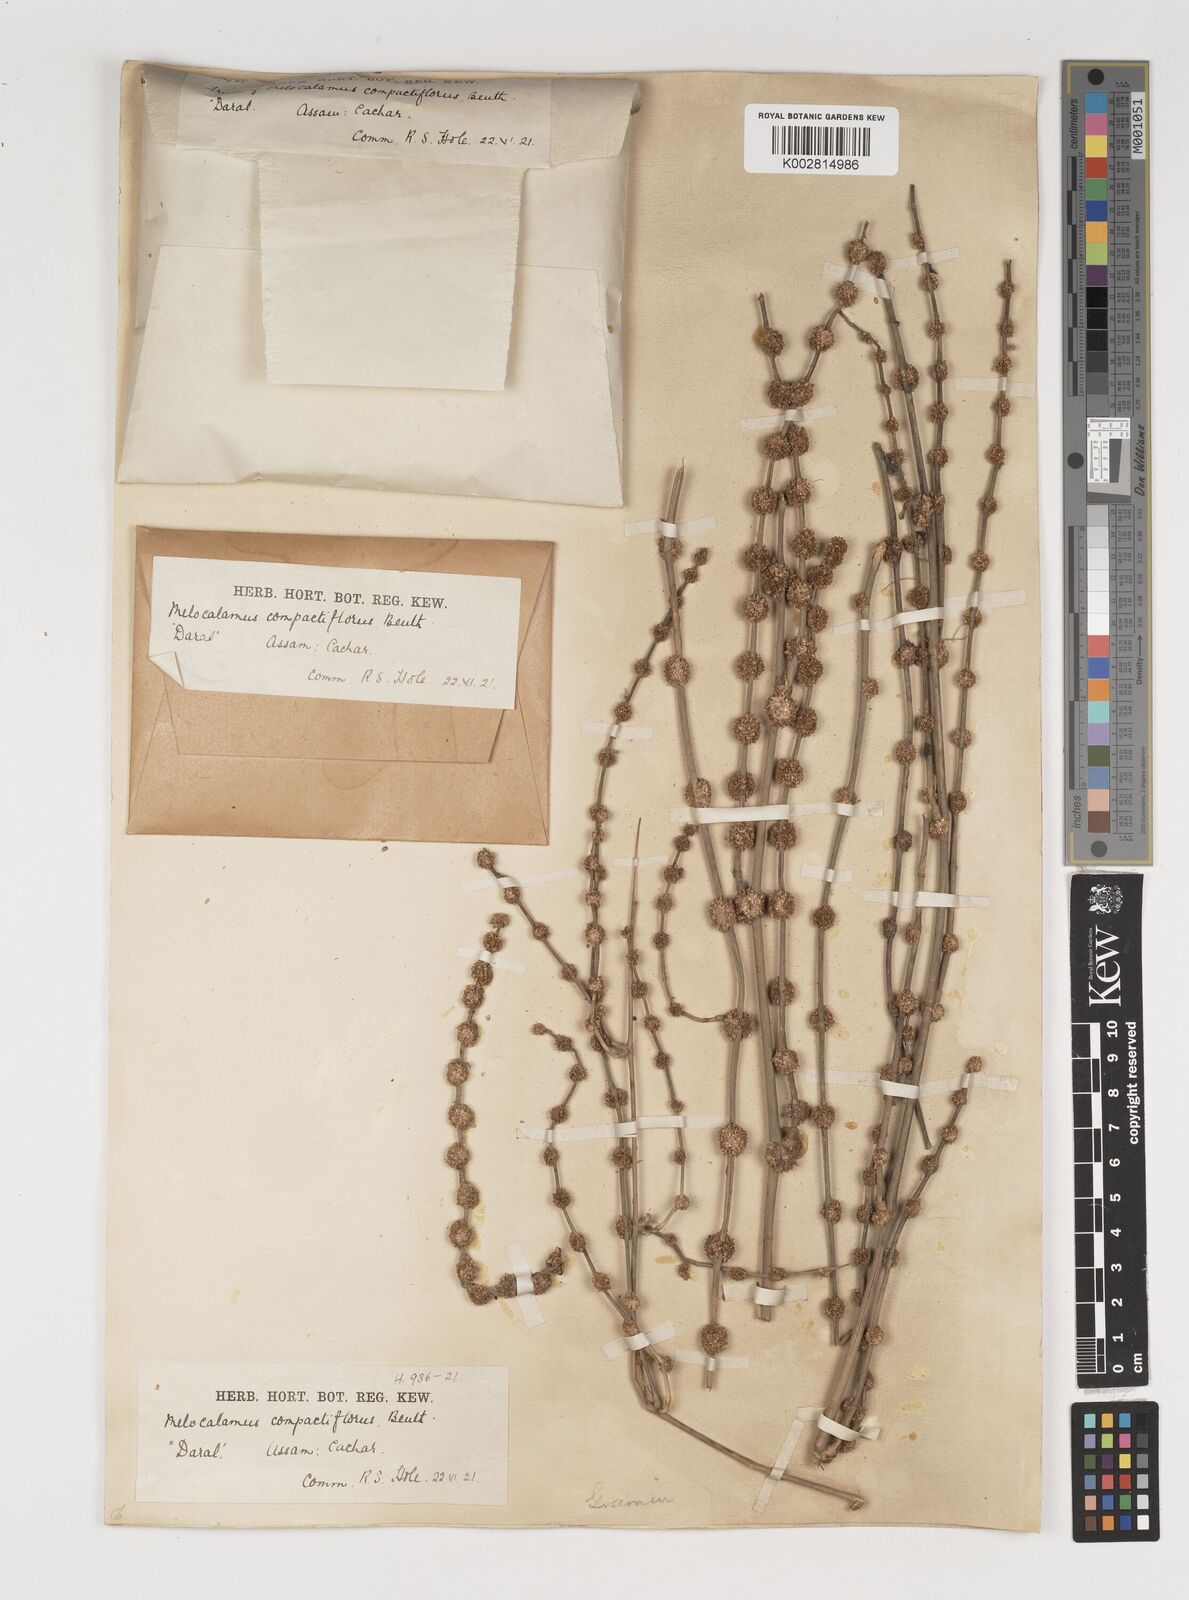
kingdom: Plantae
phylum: Tracheophyta
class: Liliopsida
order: Poales
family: Poaceae
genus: Melocalamus
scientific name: Melocalamus compactiflorus
